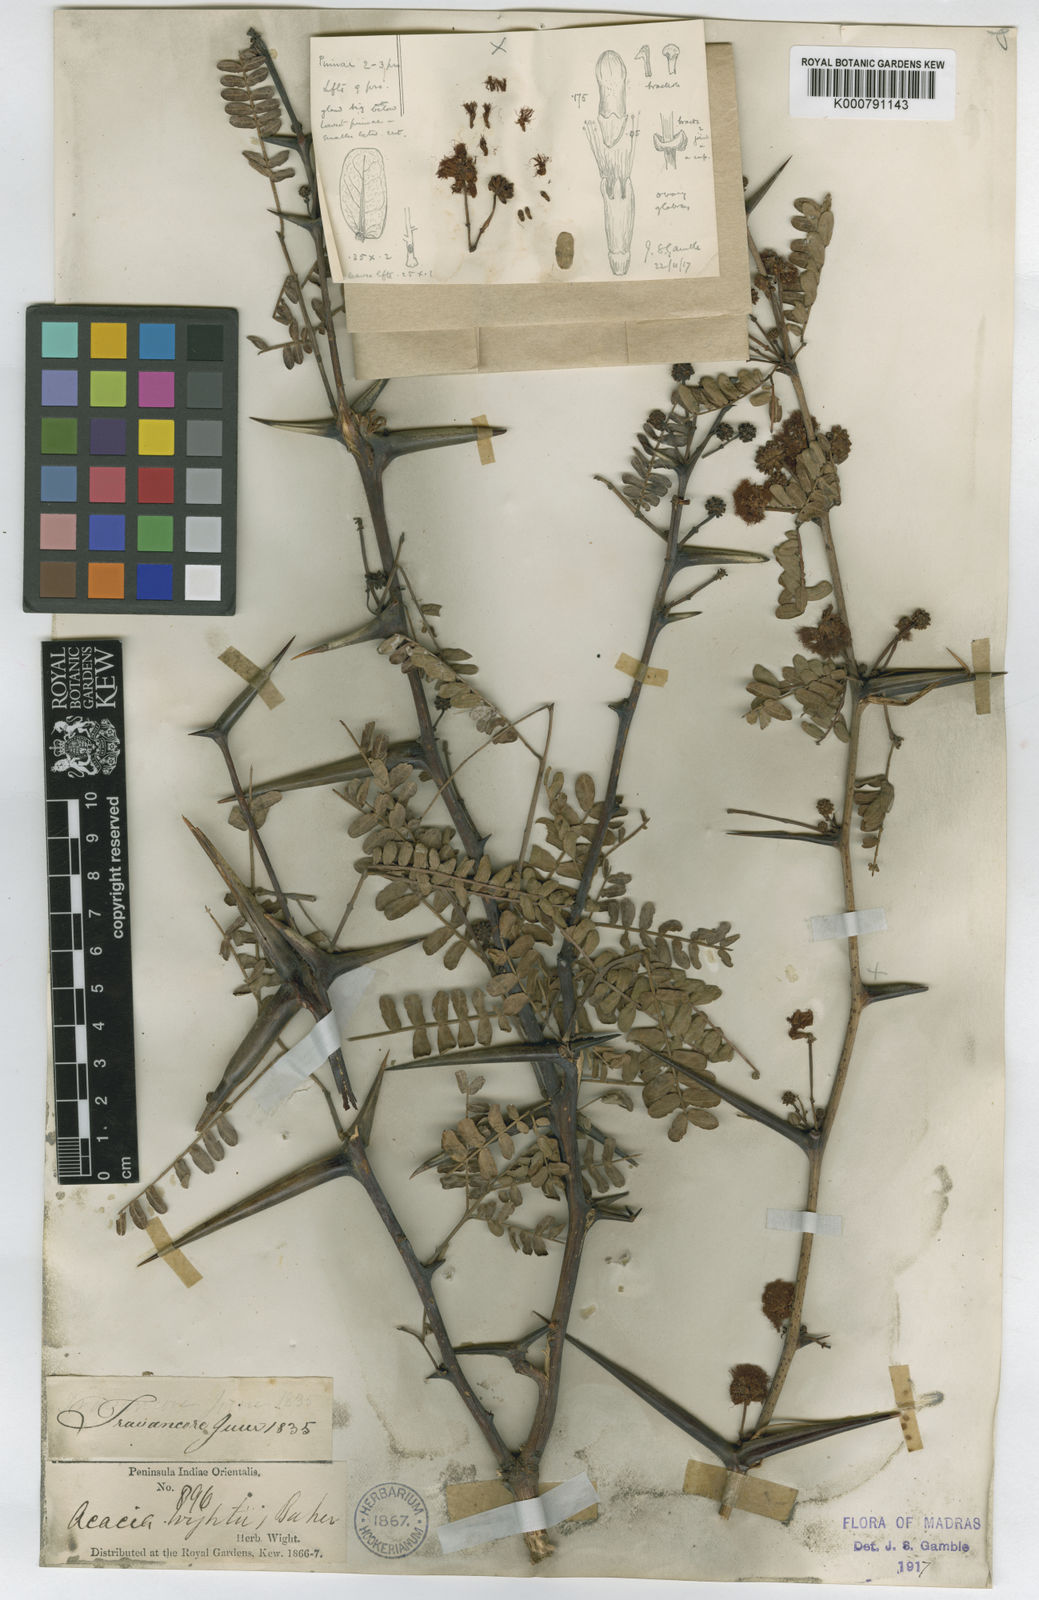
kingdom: Plantae
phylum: Tracheophyta
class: Magnoliopsida
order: Fabales
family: Fabaceae
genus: Acacia
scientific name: Acacia
